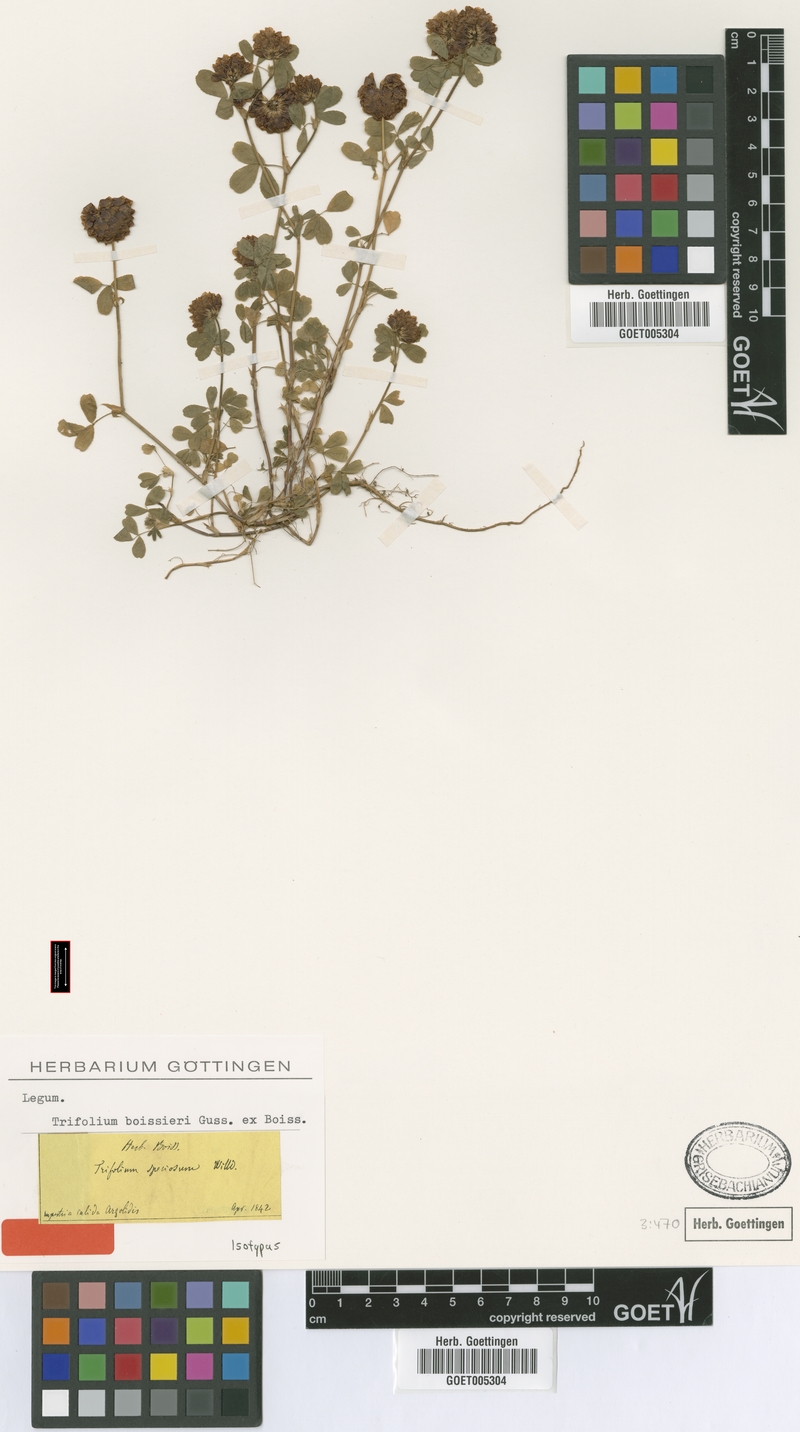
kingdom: Plantae
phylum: Tracheophyta
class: Magnoliopsida
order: Fabales
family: Fabaceae
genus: Trifolium
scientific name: Trifolium boissieri
